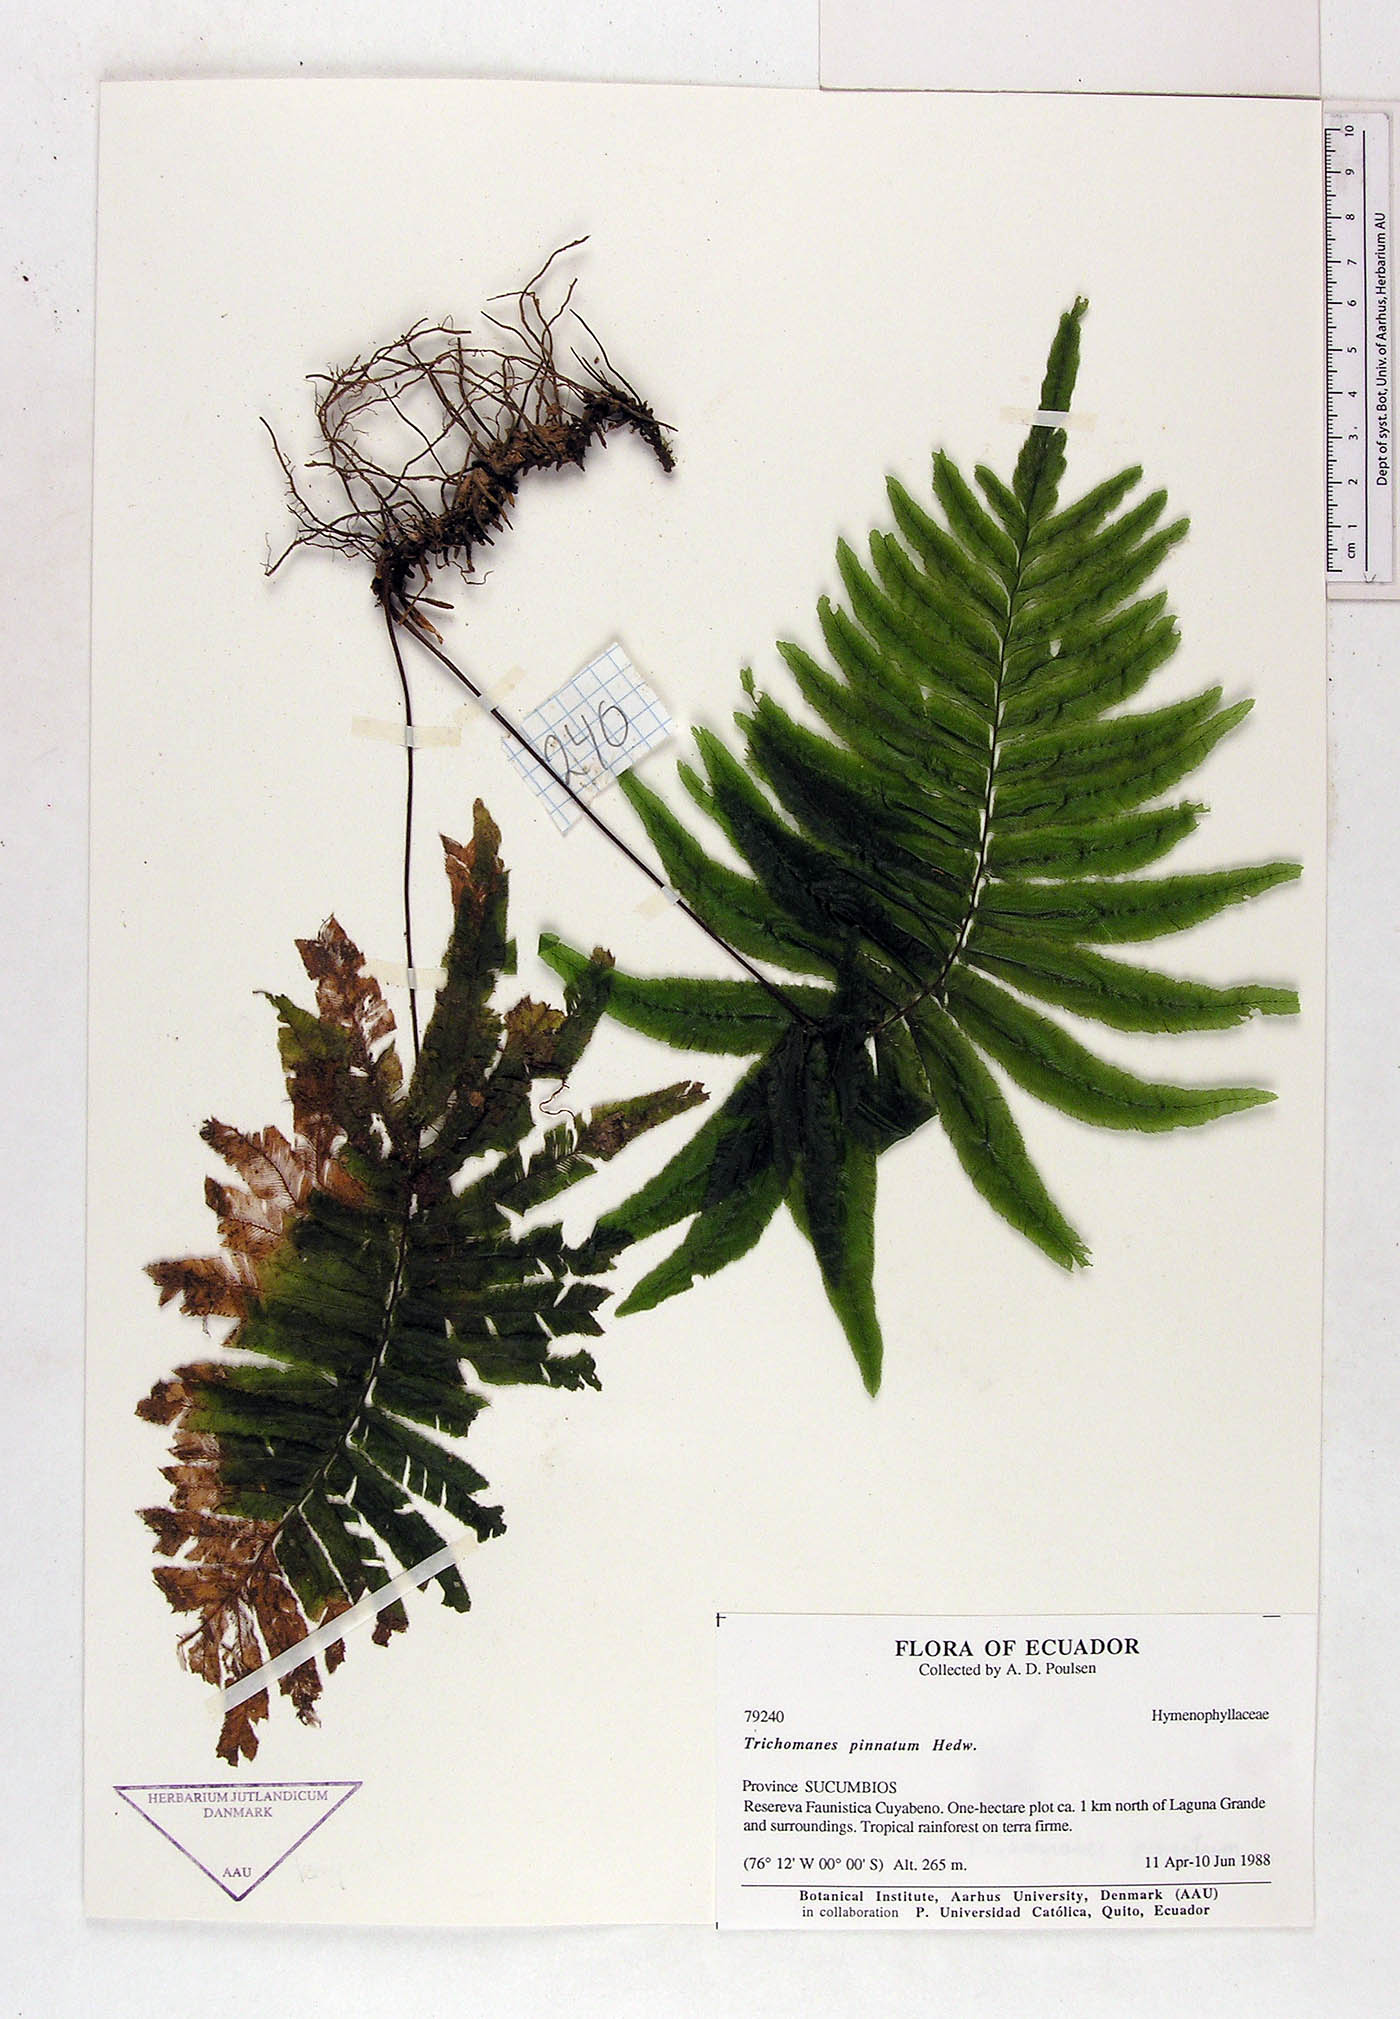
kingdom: Plantae
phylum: Tracheophyta
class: Polypodiopsida
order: Hymenophyllales
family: Hymenophyllaceae
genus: Trichomanes
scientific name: Trichomanes pinnatum
